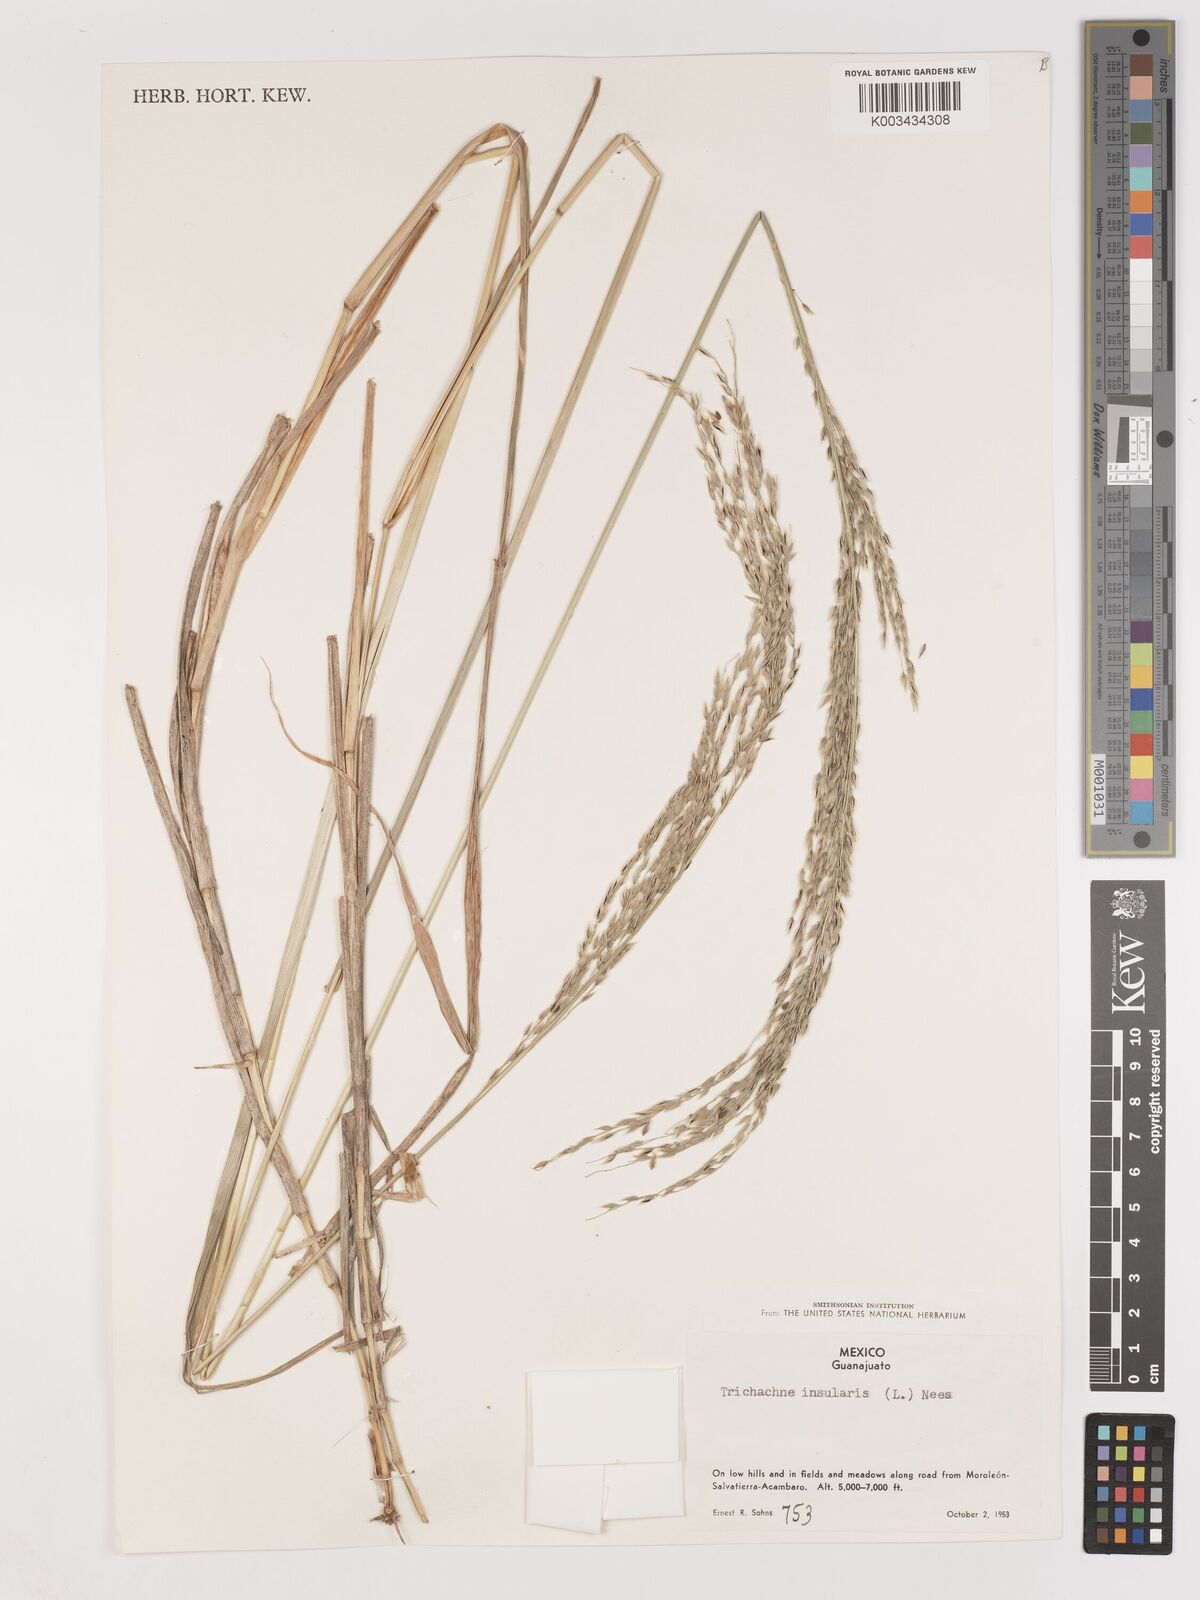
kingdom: Plantae
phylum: Tracheophyta
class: Liliopsida
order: Poales
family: Poaceae
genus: Digitaria
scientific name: Digitaria insularis
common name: Sourgrass
